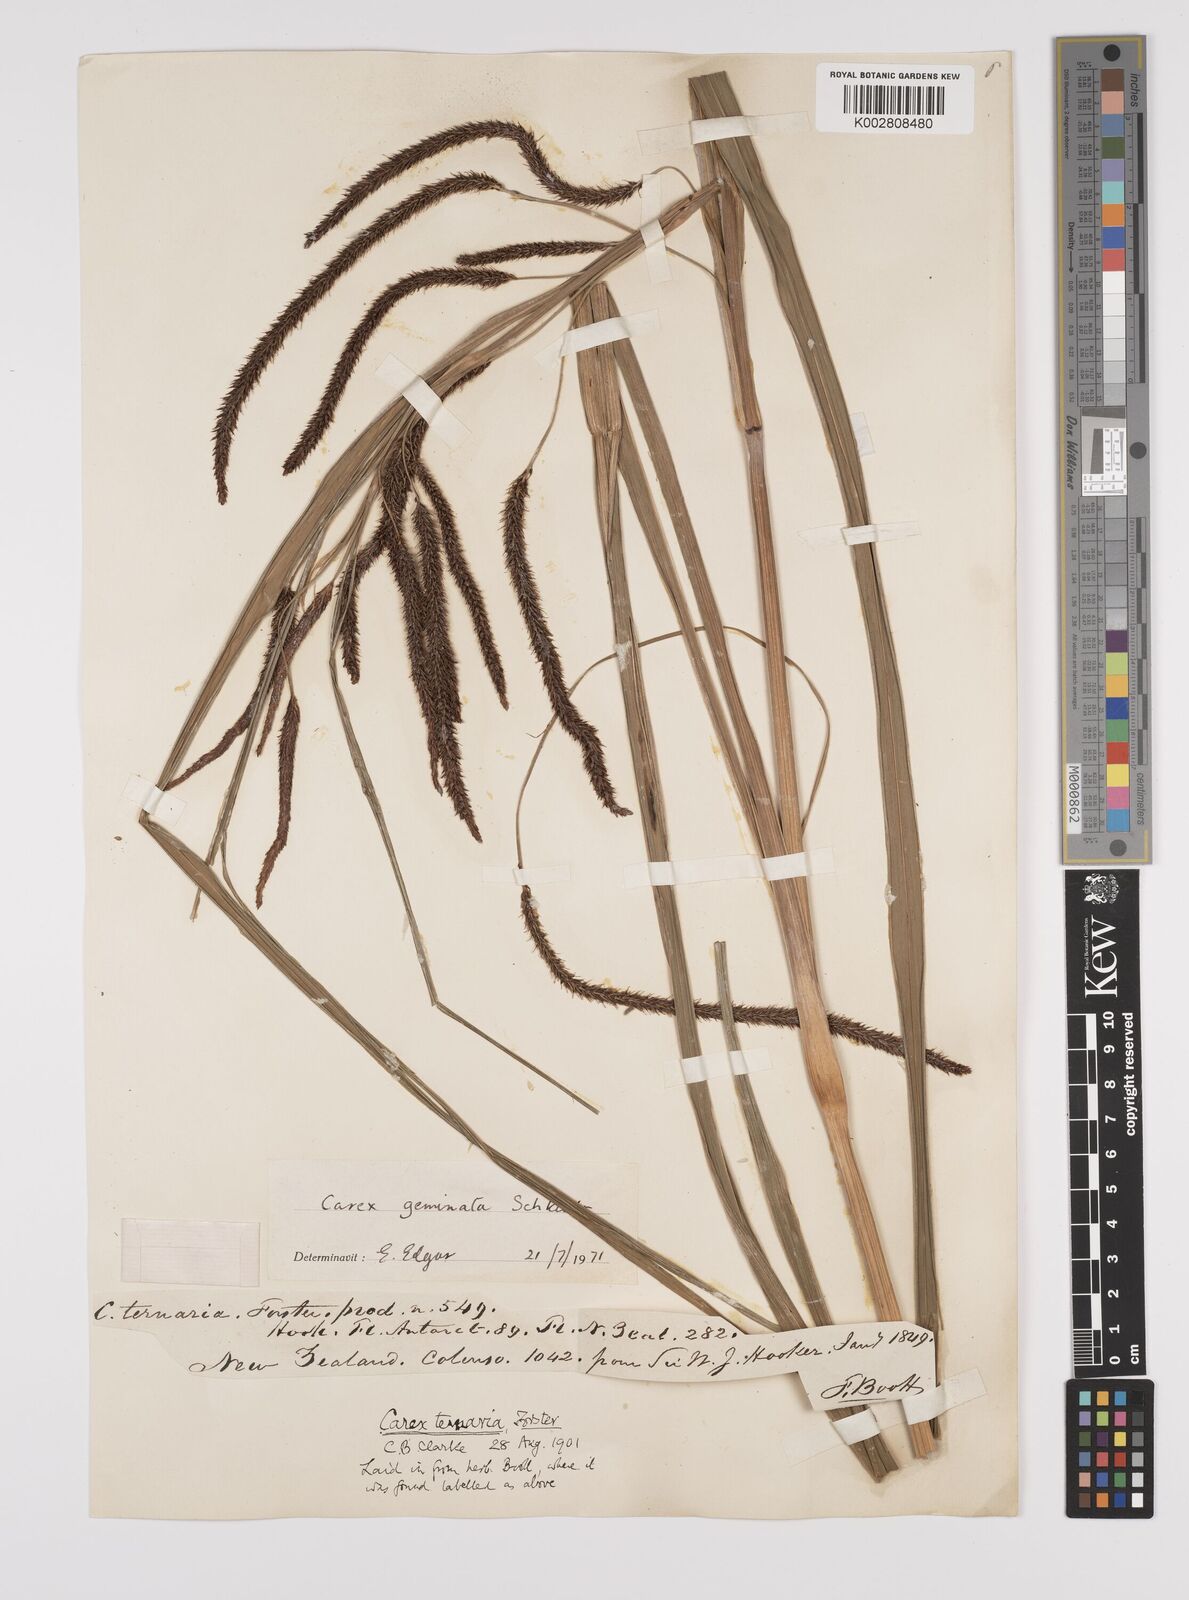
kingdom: Plantae
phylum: Tracheophyta
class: Liliopsida
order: Poales
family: Cyperaceae
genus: Carex
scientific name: Carex geminata
